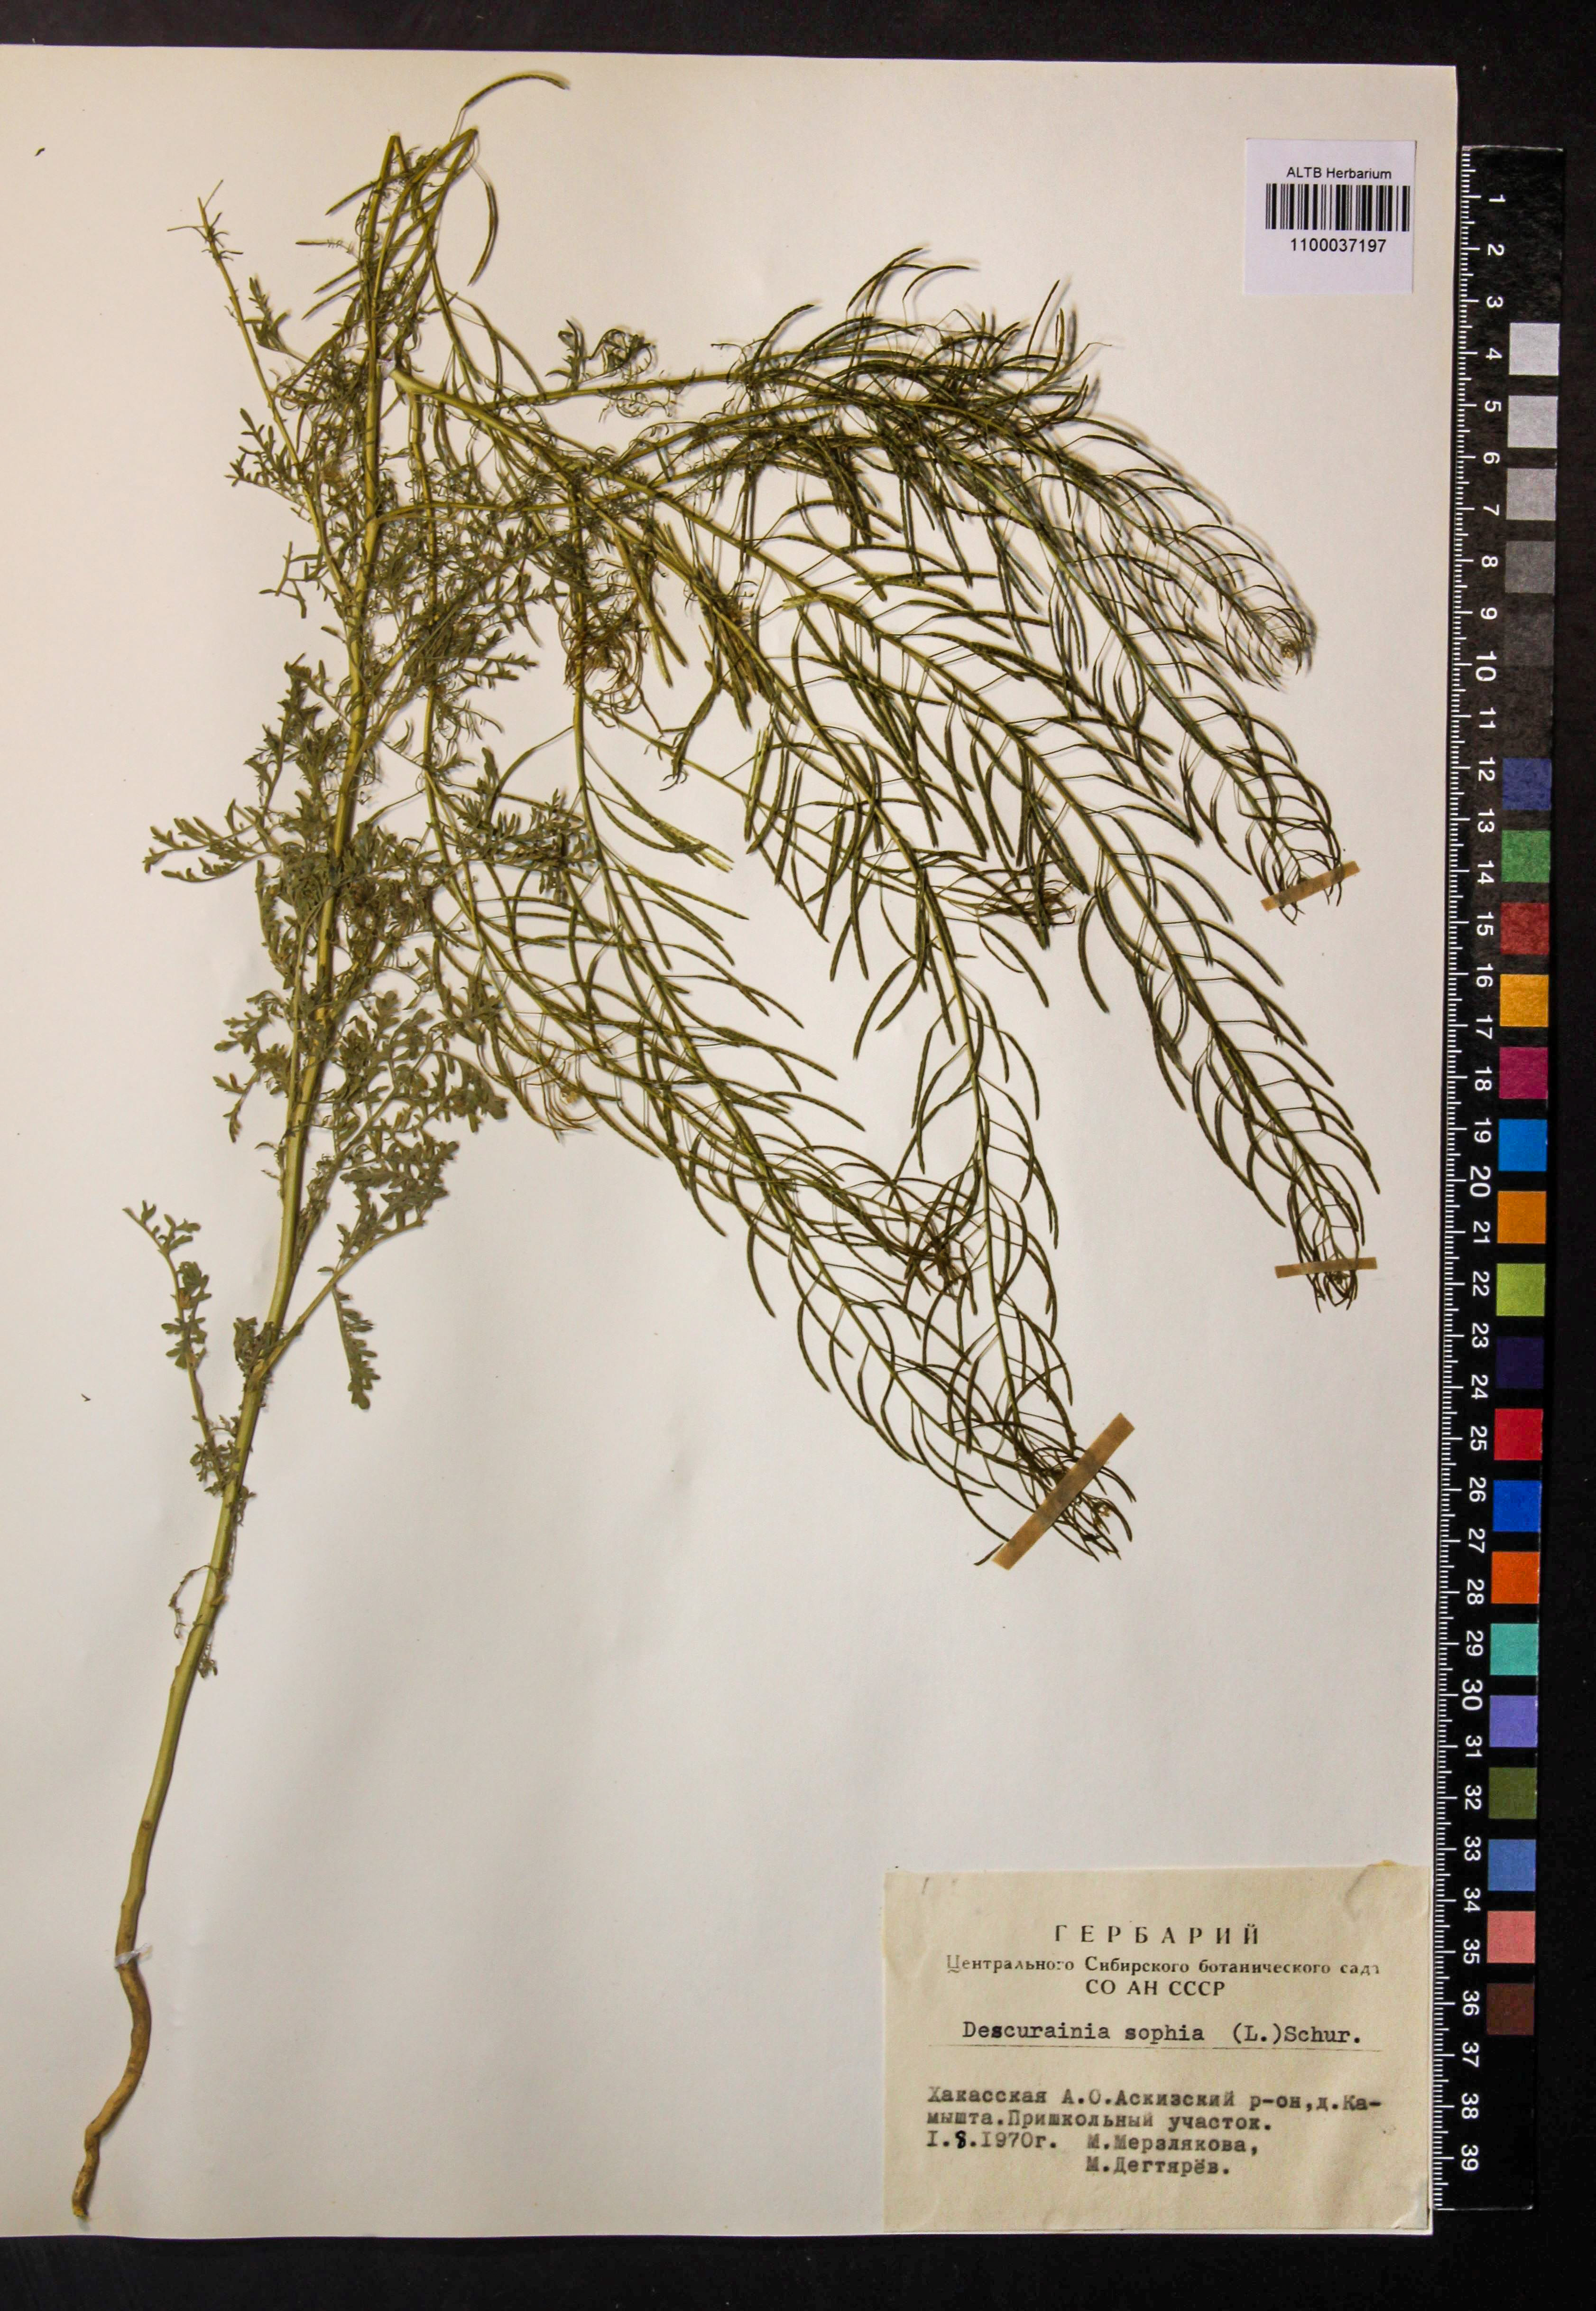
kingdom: Plantae
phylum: Tracheophyta
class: Magnoliopsida
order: Brassicales
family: Brassicaceae
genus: Descurainia
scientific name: Descurainia sophia
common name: Flixweed
